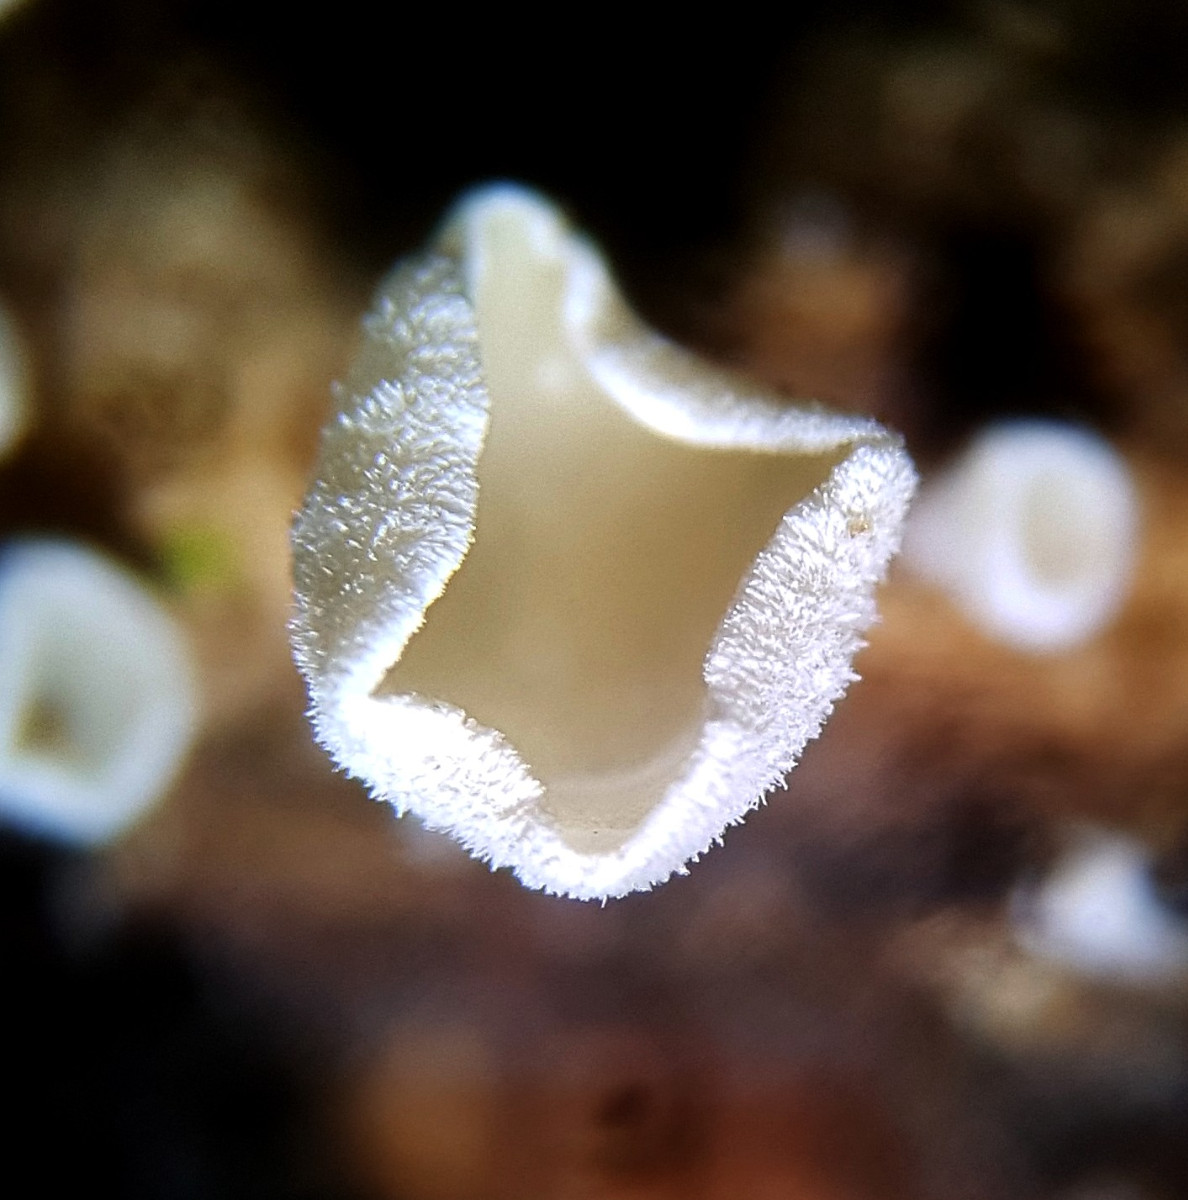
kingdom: Fungi
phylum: Ascomycota
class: Leotiomycetes
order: Helotiales
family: Lachnaceae
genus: Lachnum
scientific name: Lachnum impudicum
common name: vinter-frynseskive
